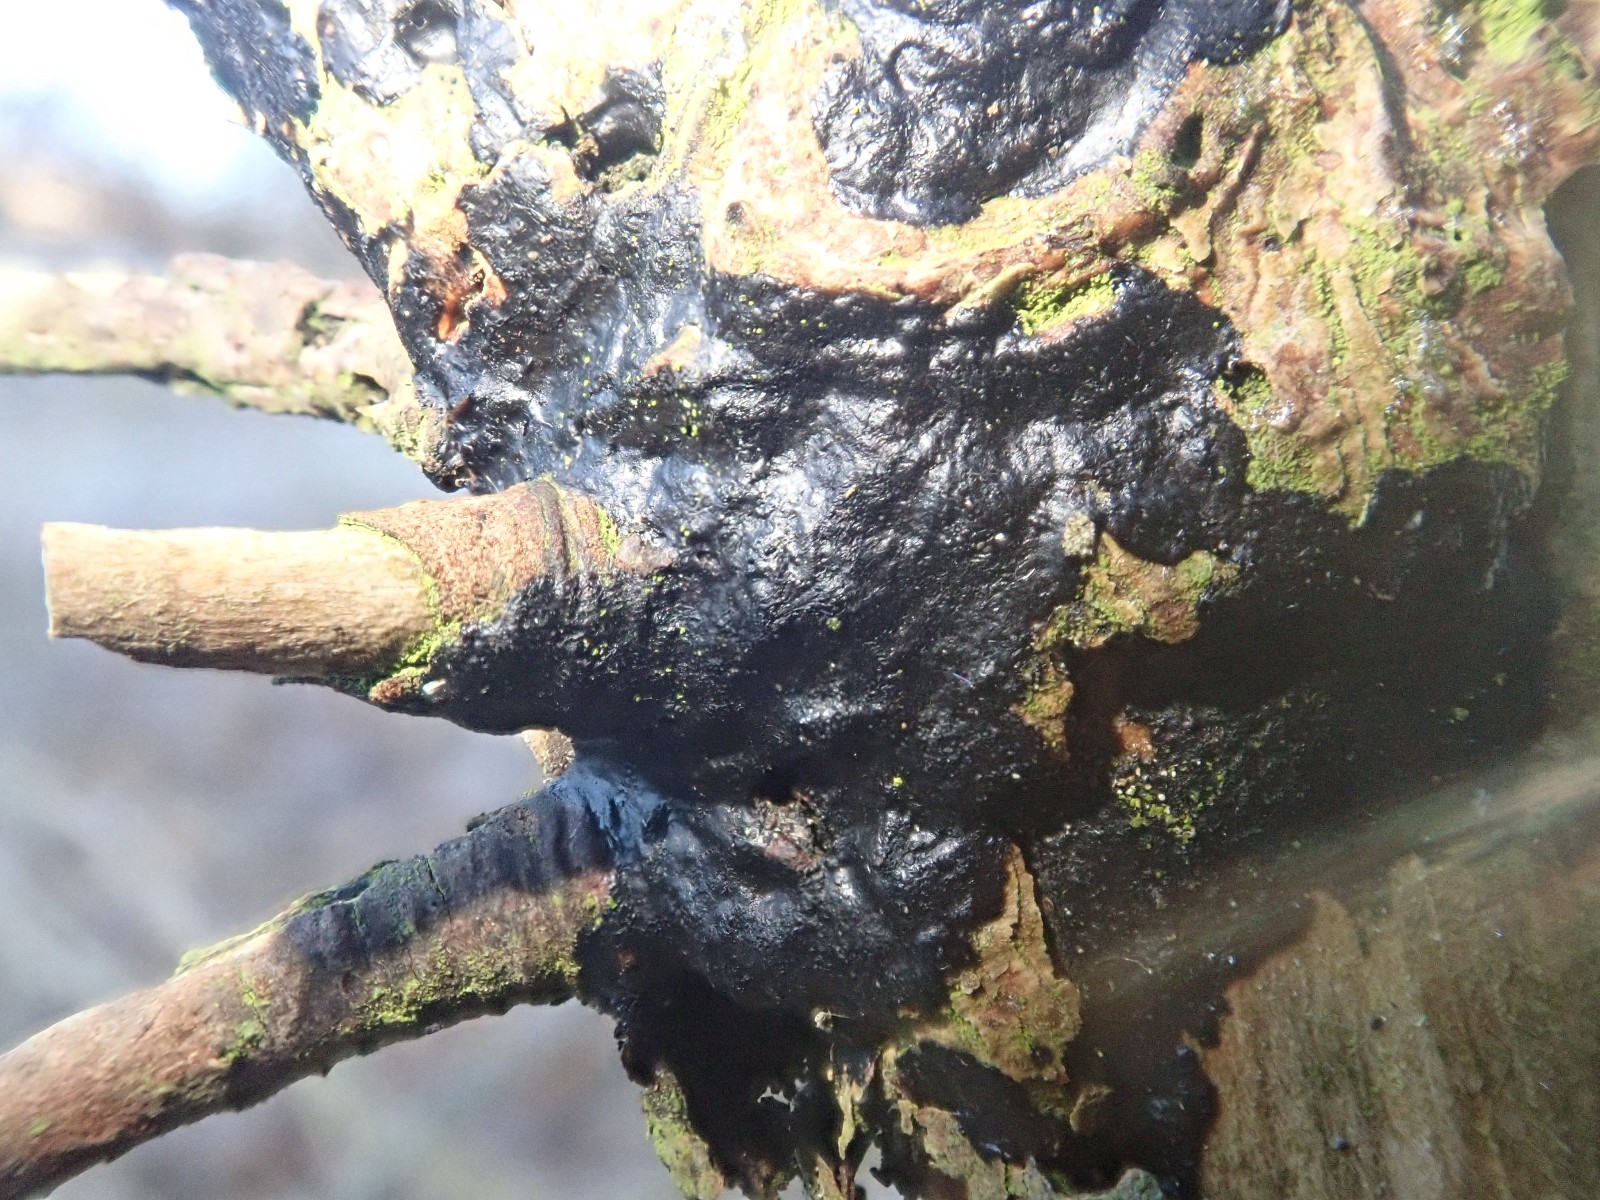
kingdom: Fungi
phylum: Basidiomycota
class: Agaricomycetes
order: Auriculariales
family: Auriculariaceae
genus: Exidia
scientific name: Exidia pithya
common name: gran-bævretop
